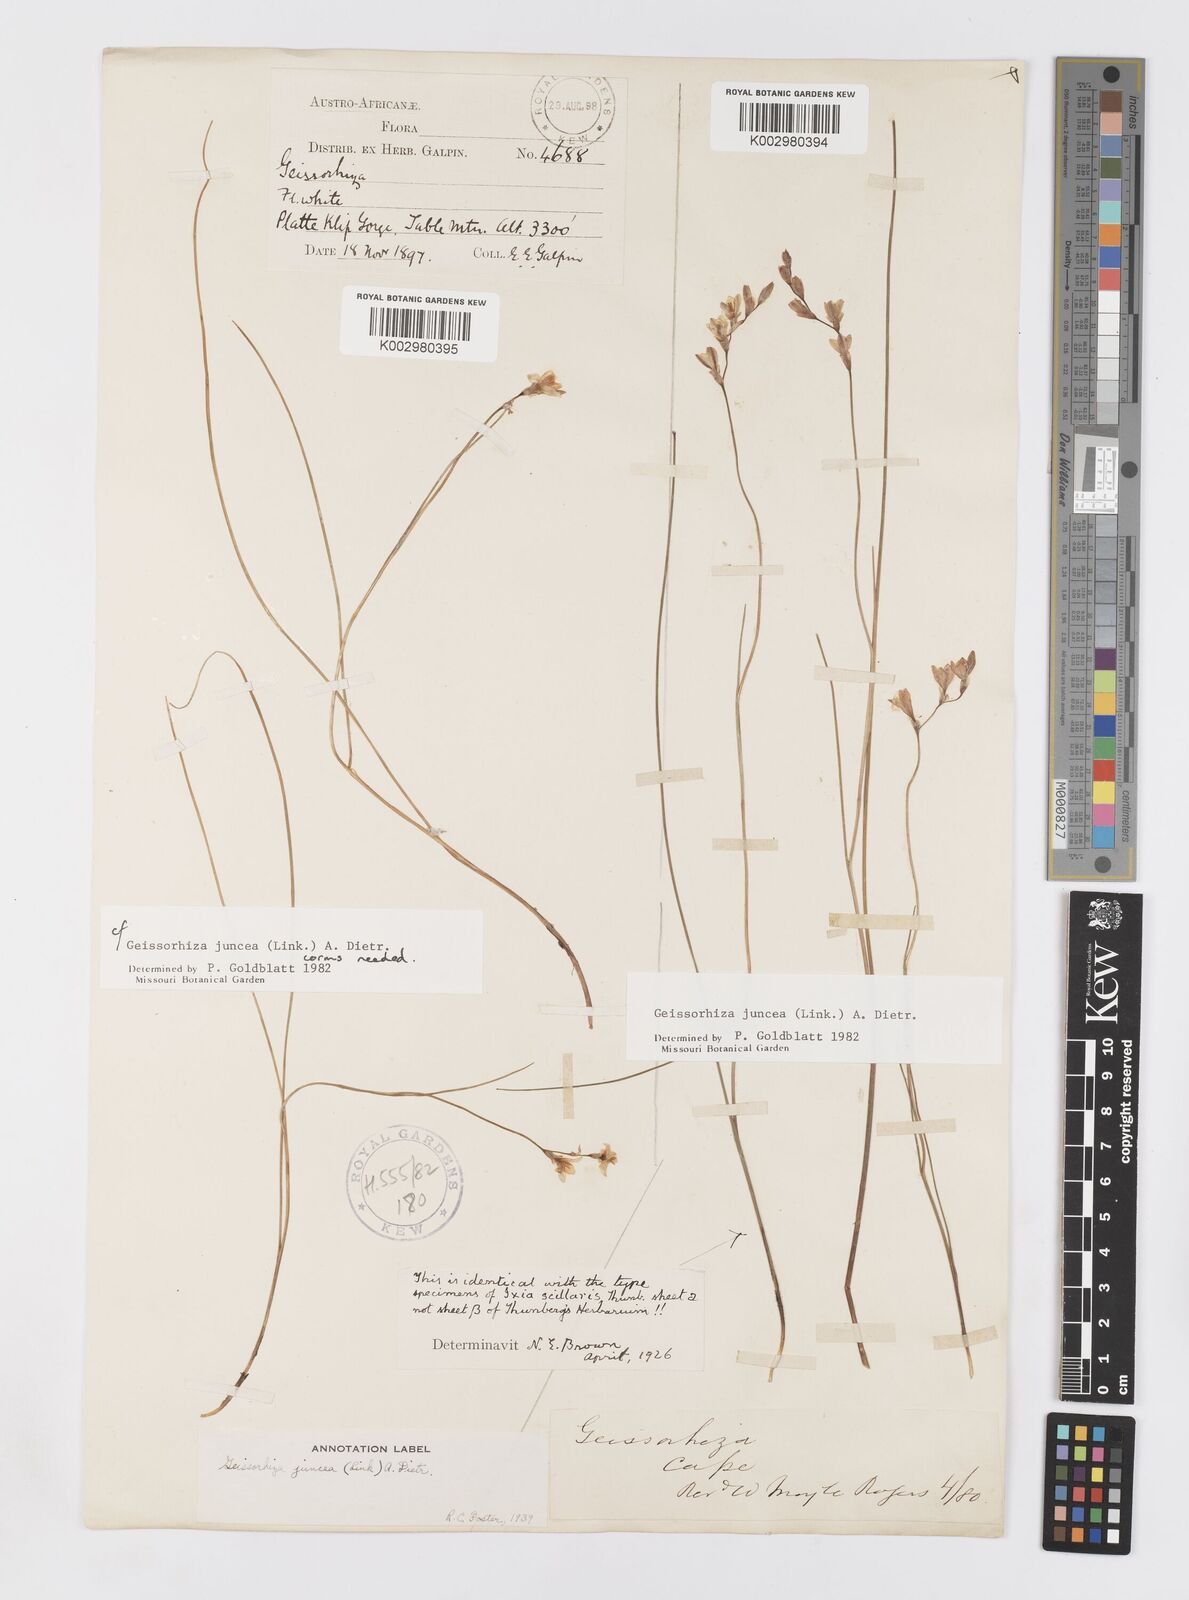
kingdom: Plantae
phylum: Tracheophyta
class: Liliopsida
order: Asparagales
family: Iridaceae
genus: Geissorhiza
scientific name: Geissorhiza juncea
